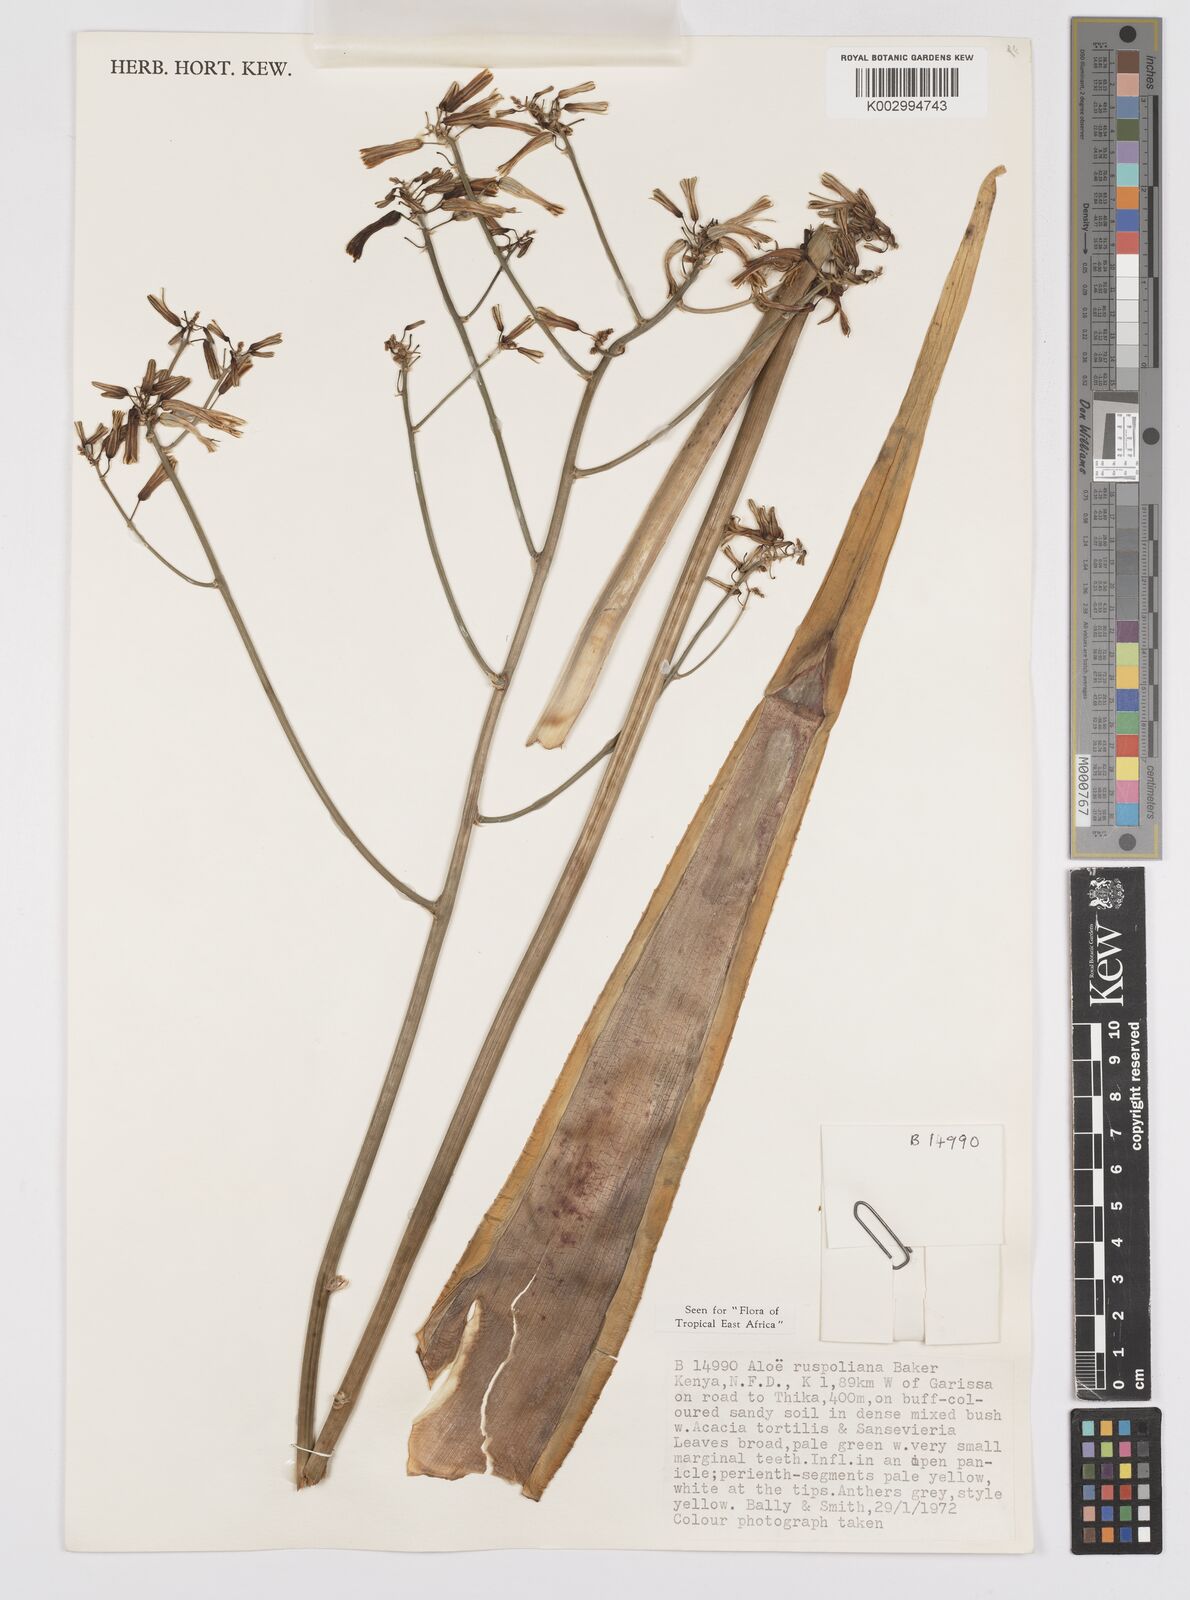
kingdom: Plantae
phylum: Tracheophyta
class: Liliopsida
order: Asparagales
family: Asphodelaceae
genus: Aloe
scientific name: Aloe ruspoliana
